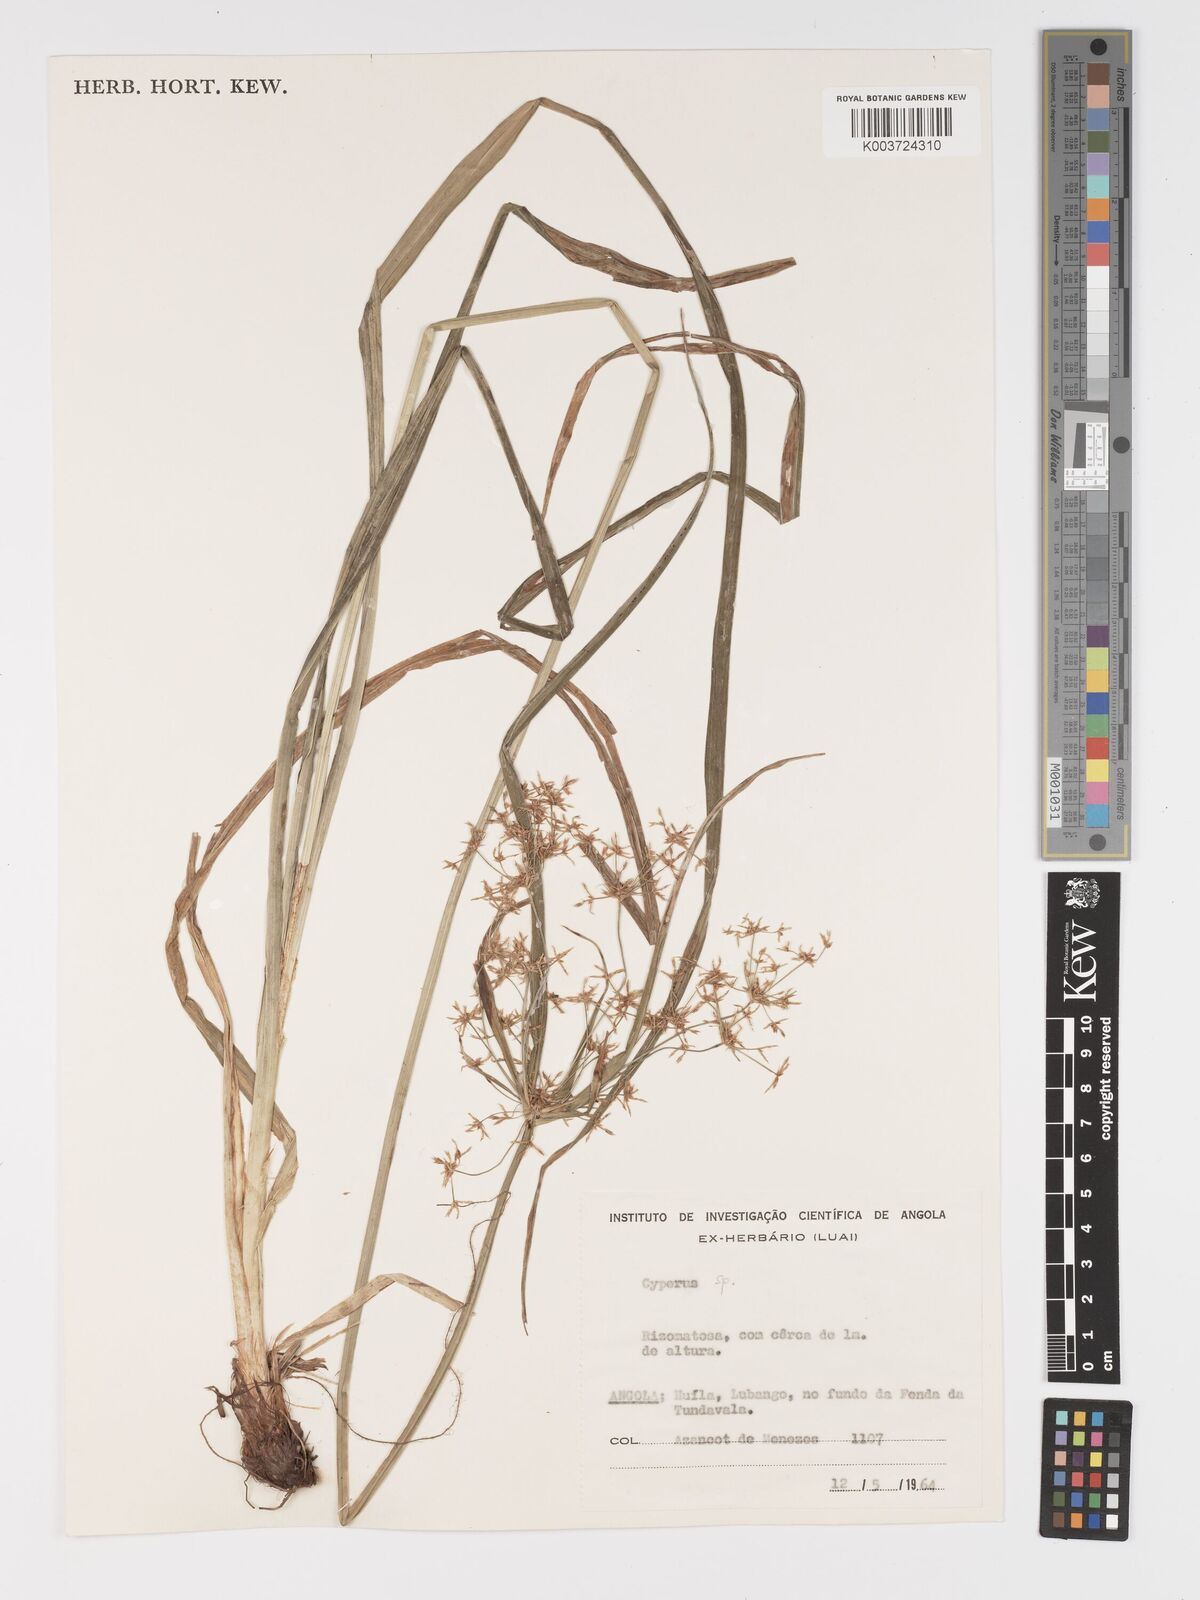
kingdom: Plantae
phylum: Tracheophyta
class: Liliopsida
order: Poales
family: Cyperaceae
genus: Cyperus
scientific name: Cyperus
